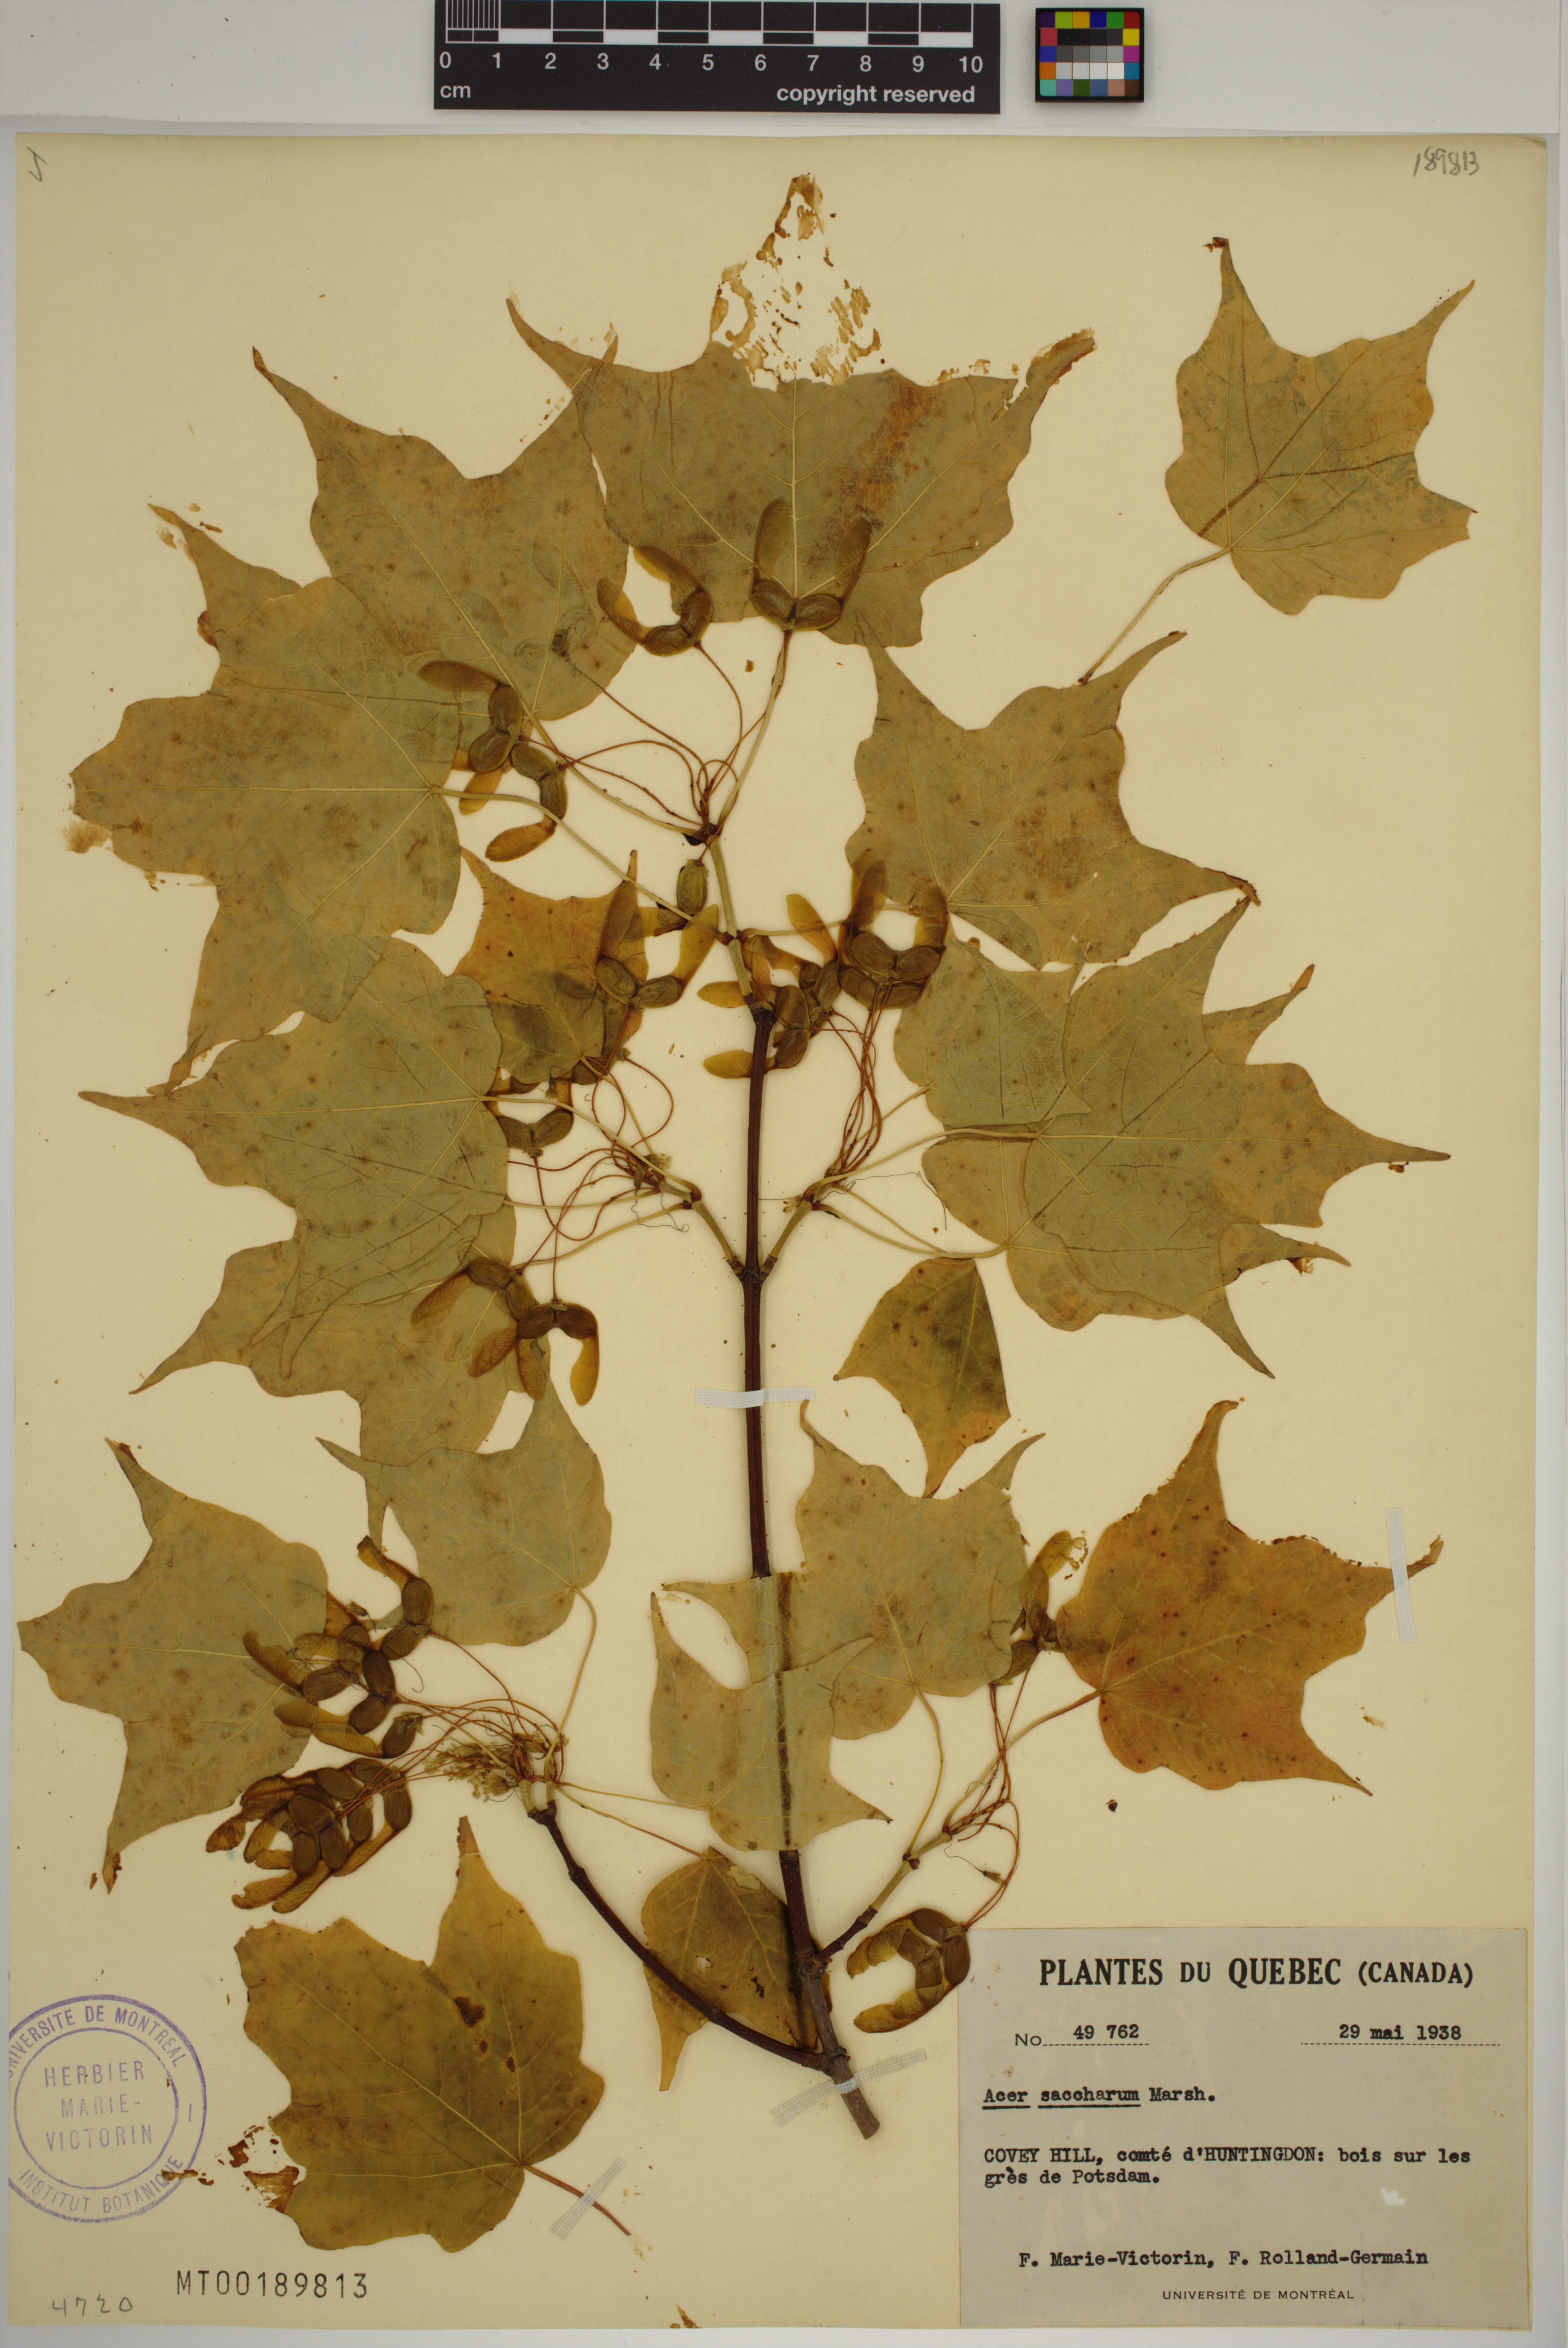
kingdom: Plantae
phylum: Tracheophyta
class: Magnoliopsida
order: Sapindales
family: Sapindaceae
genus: Acer
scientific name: Acer saccharum
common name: Sugar maple
